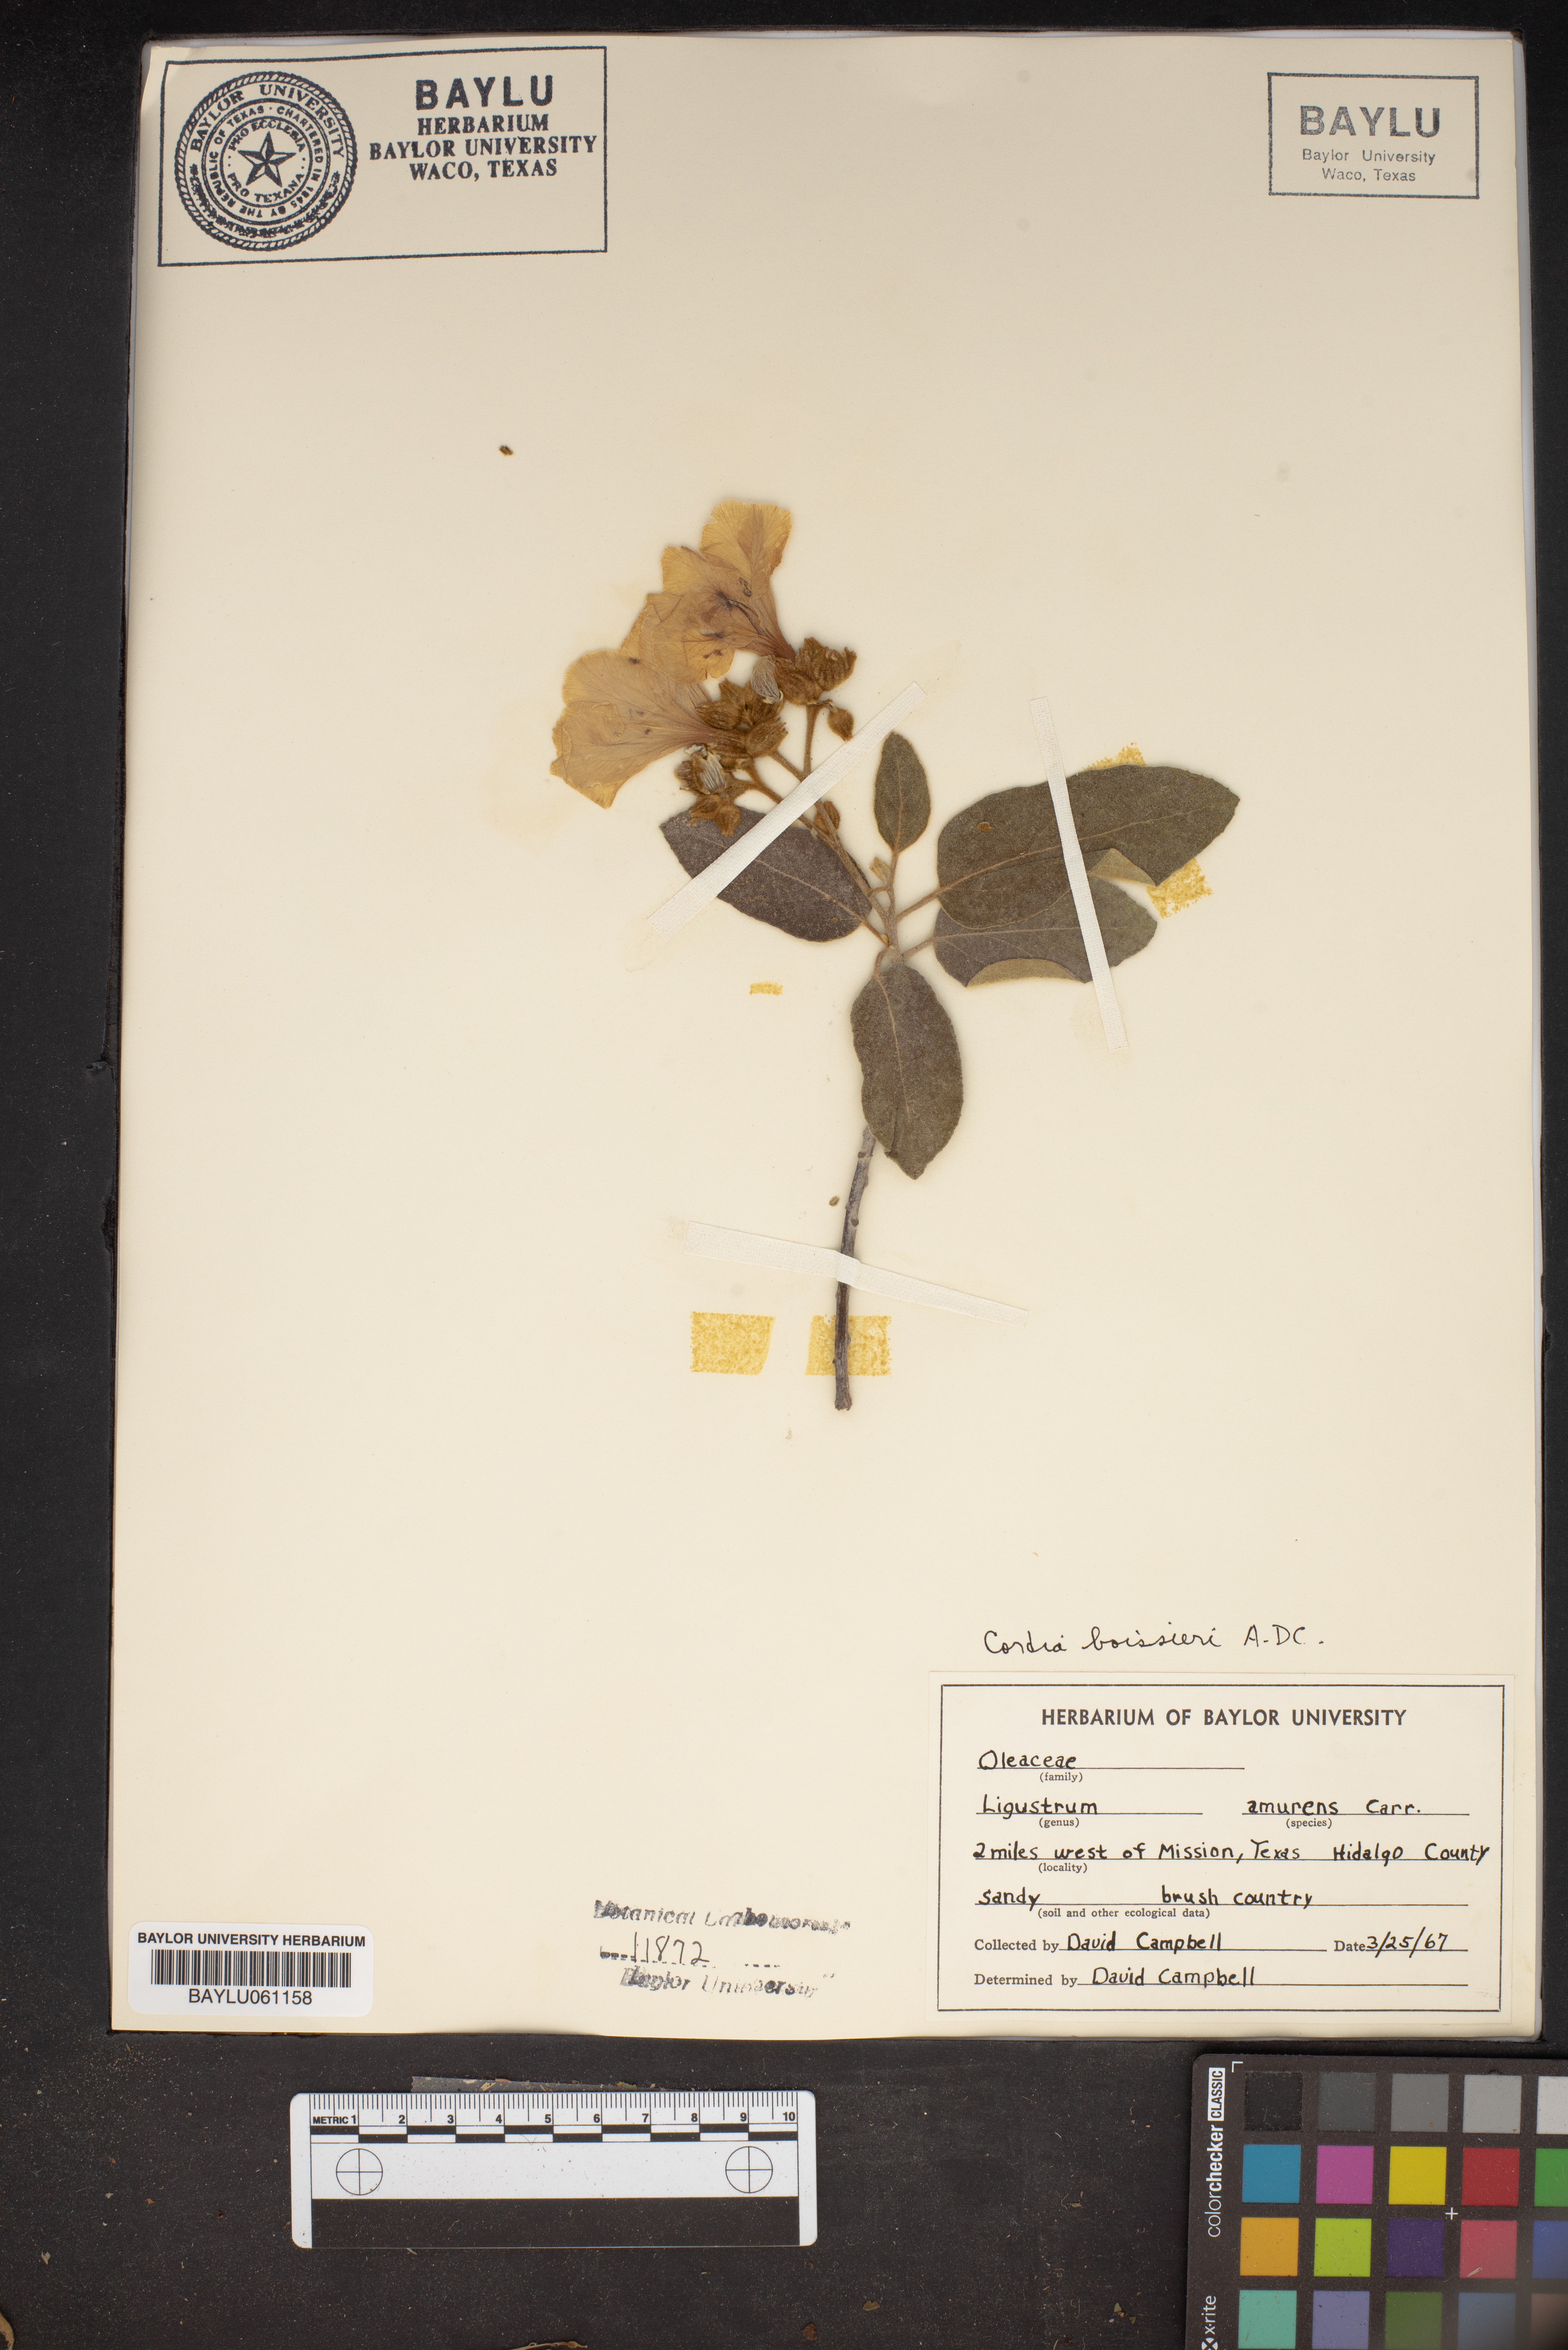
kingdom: Plantae
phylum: Tracheophyta
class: Magnoliopsida
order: Lamiales
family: Oleaceae
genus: Ligustrum
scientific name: Ligustrum obtusifolium
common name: Border privet
